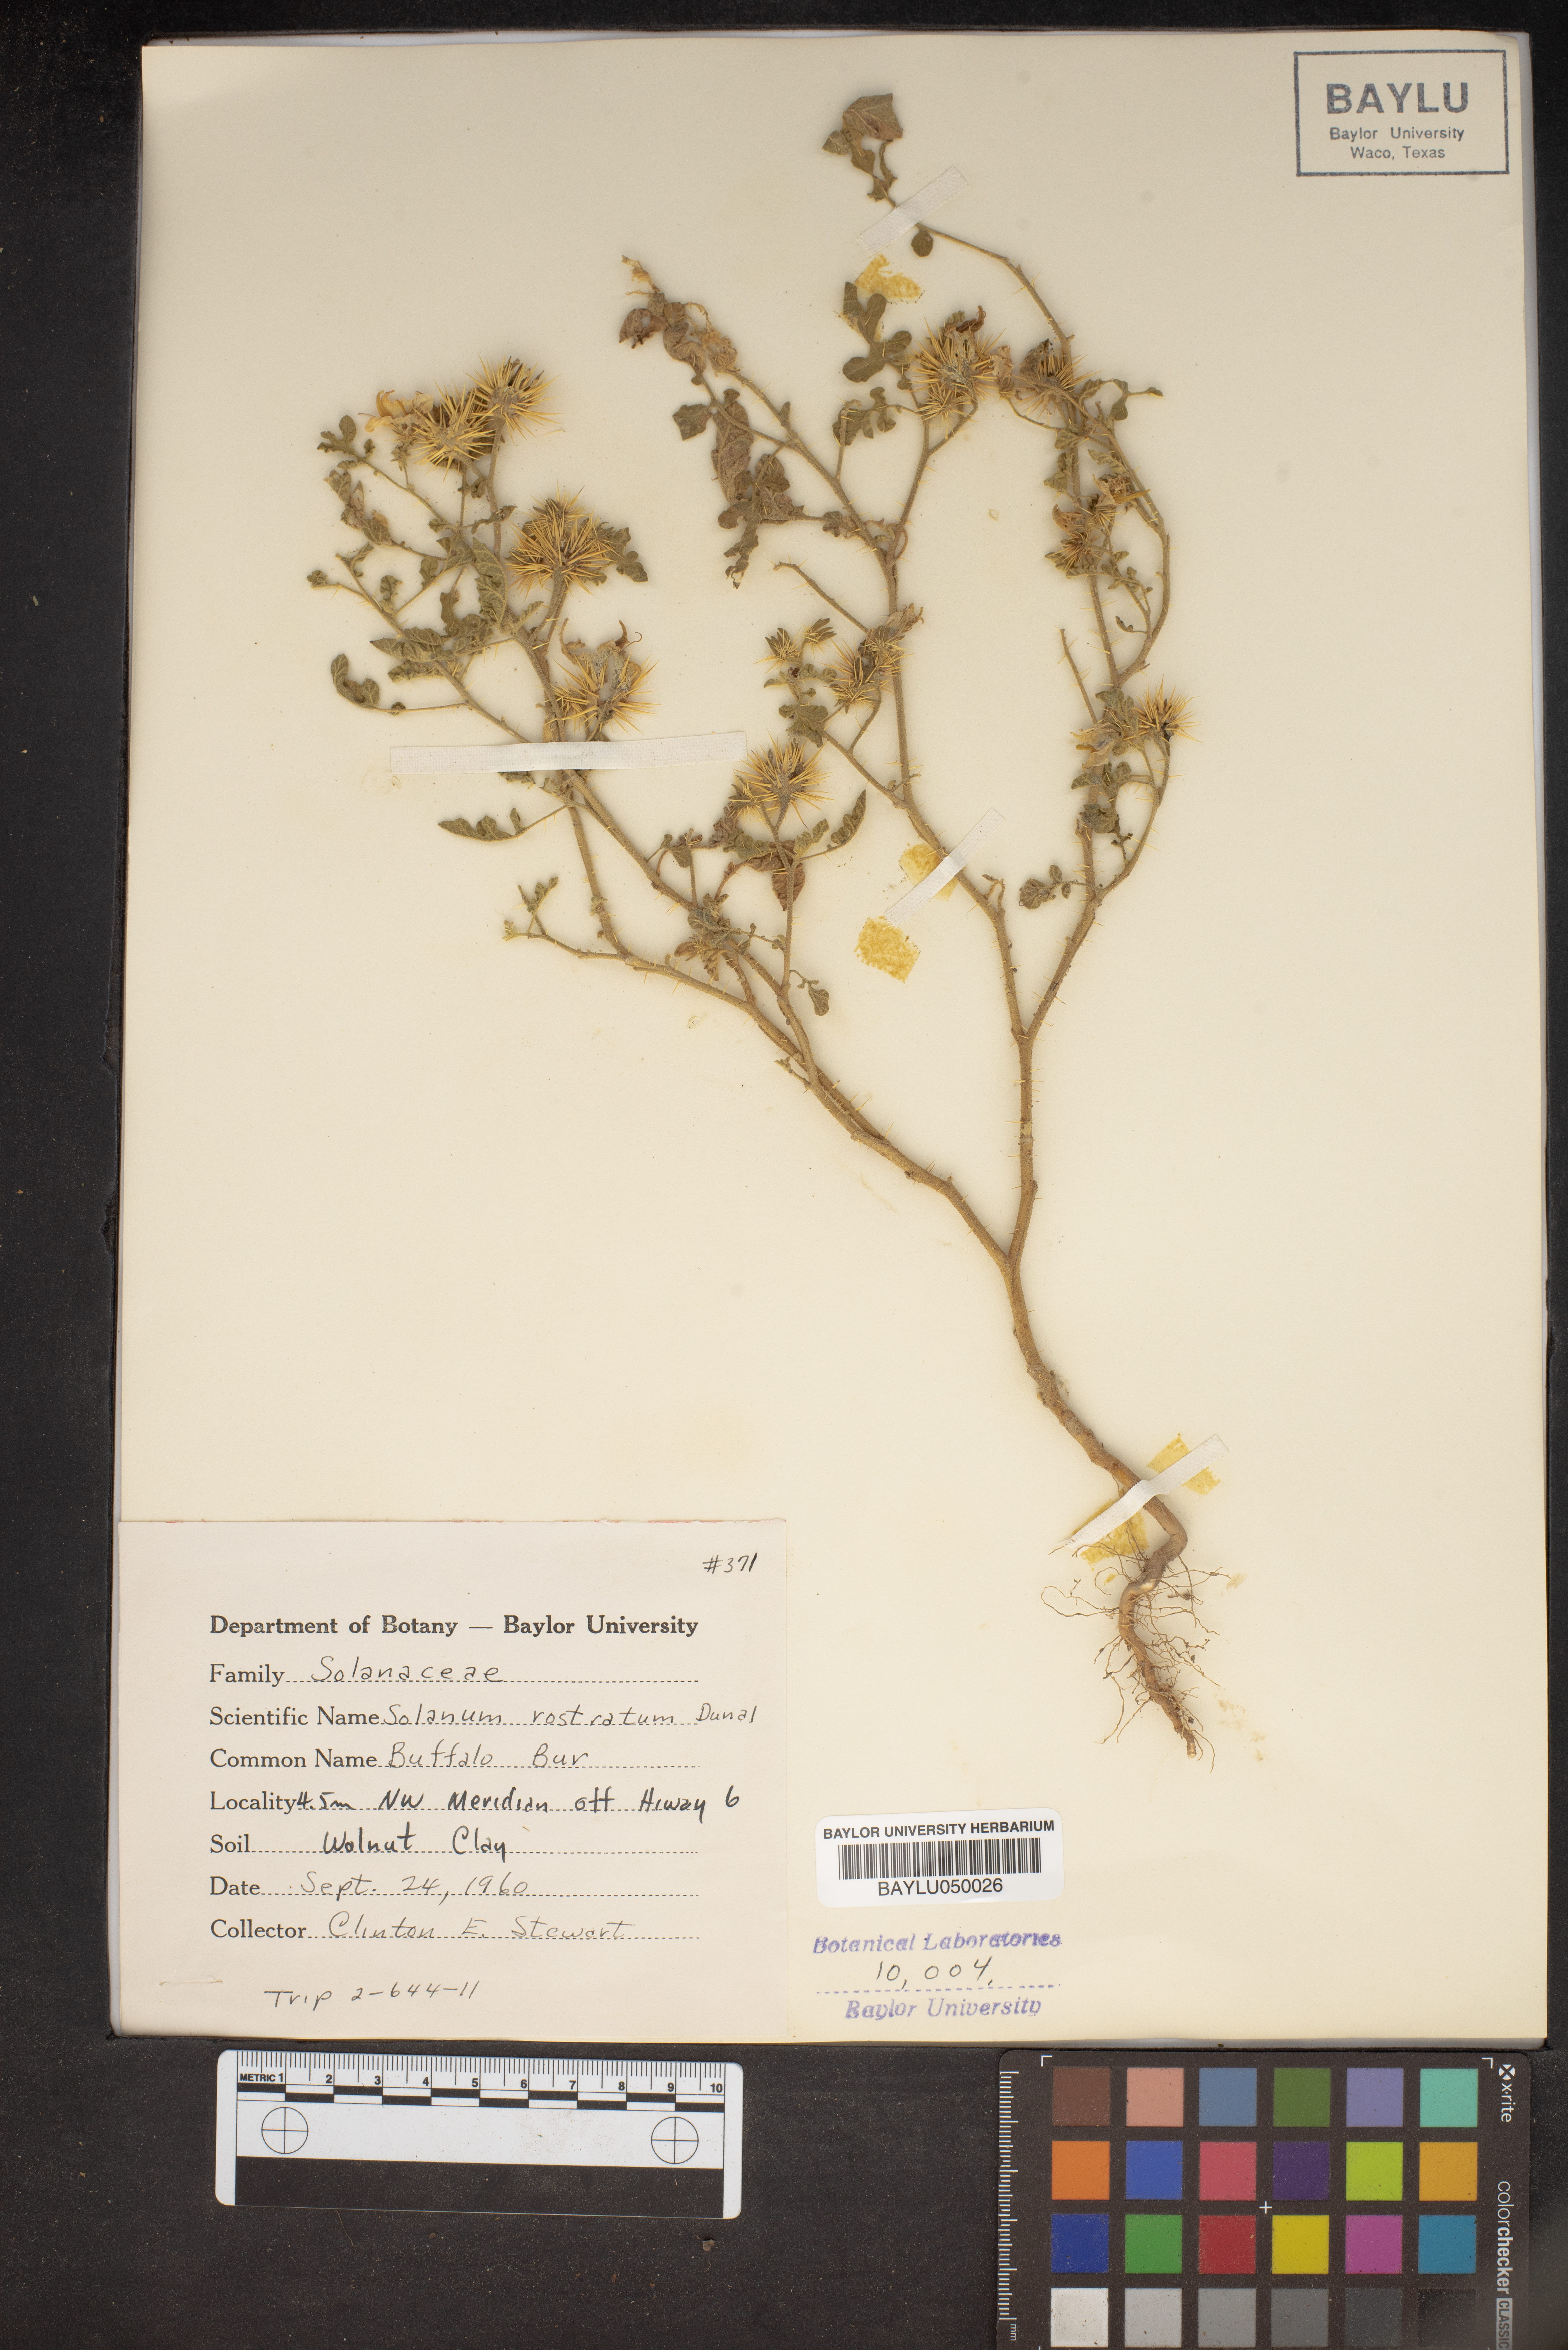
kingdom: Plantae
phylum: Tracheophyta
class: Magnoliopsida
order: Solanales
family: Solanaceae
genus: Solanum
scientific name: Solanum angustifolium
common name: Buffalobur nightshade
